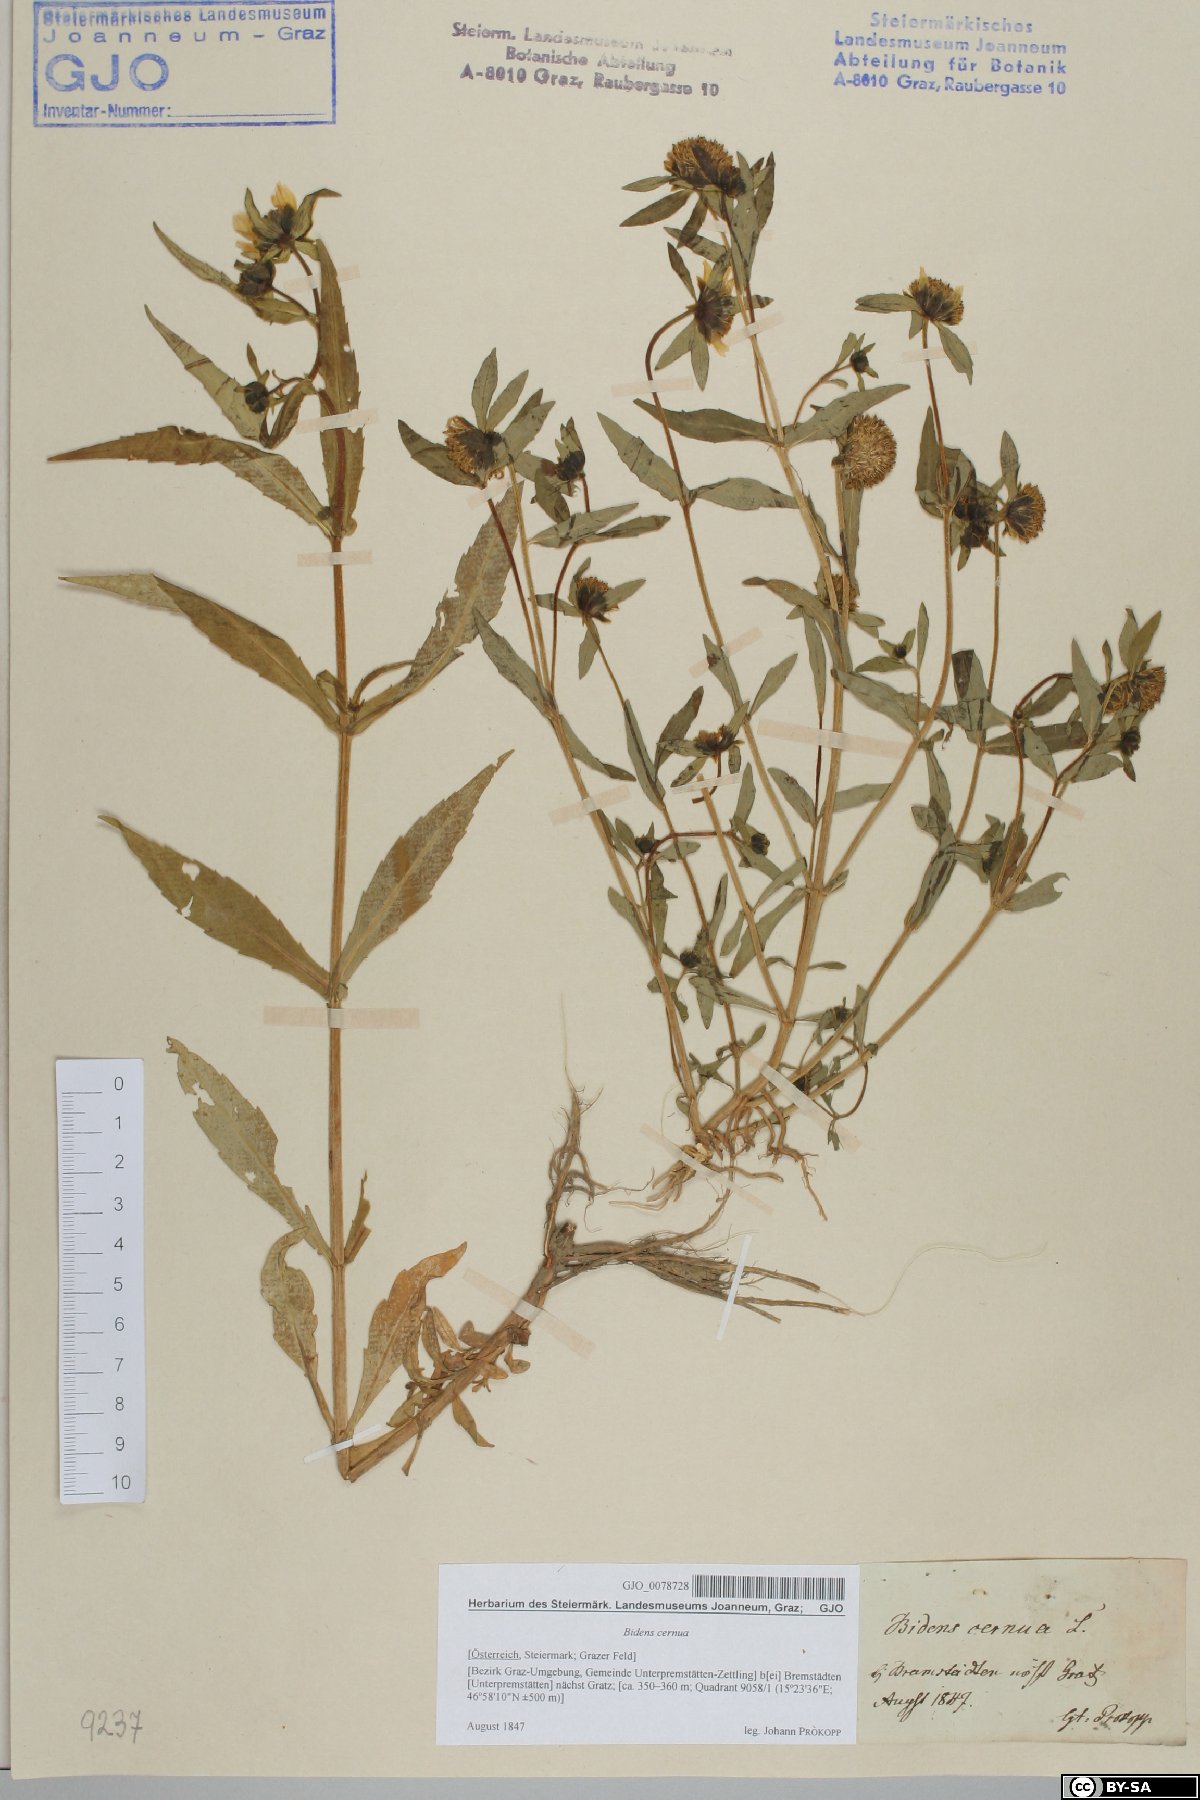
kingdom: Plantae
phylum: Tracheophyta
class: Magnoliopsida
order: Asterales
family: Asteraceae
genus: Bidens
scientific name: Bidens cernua
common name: Nodding bur-marigold
